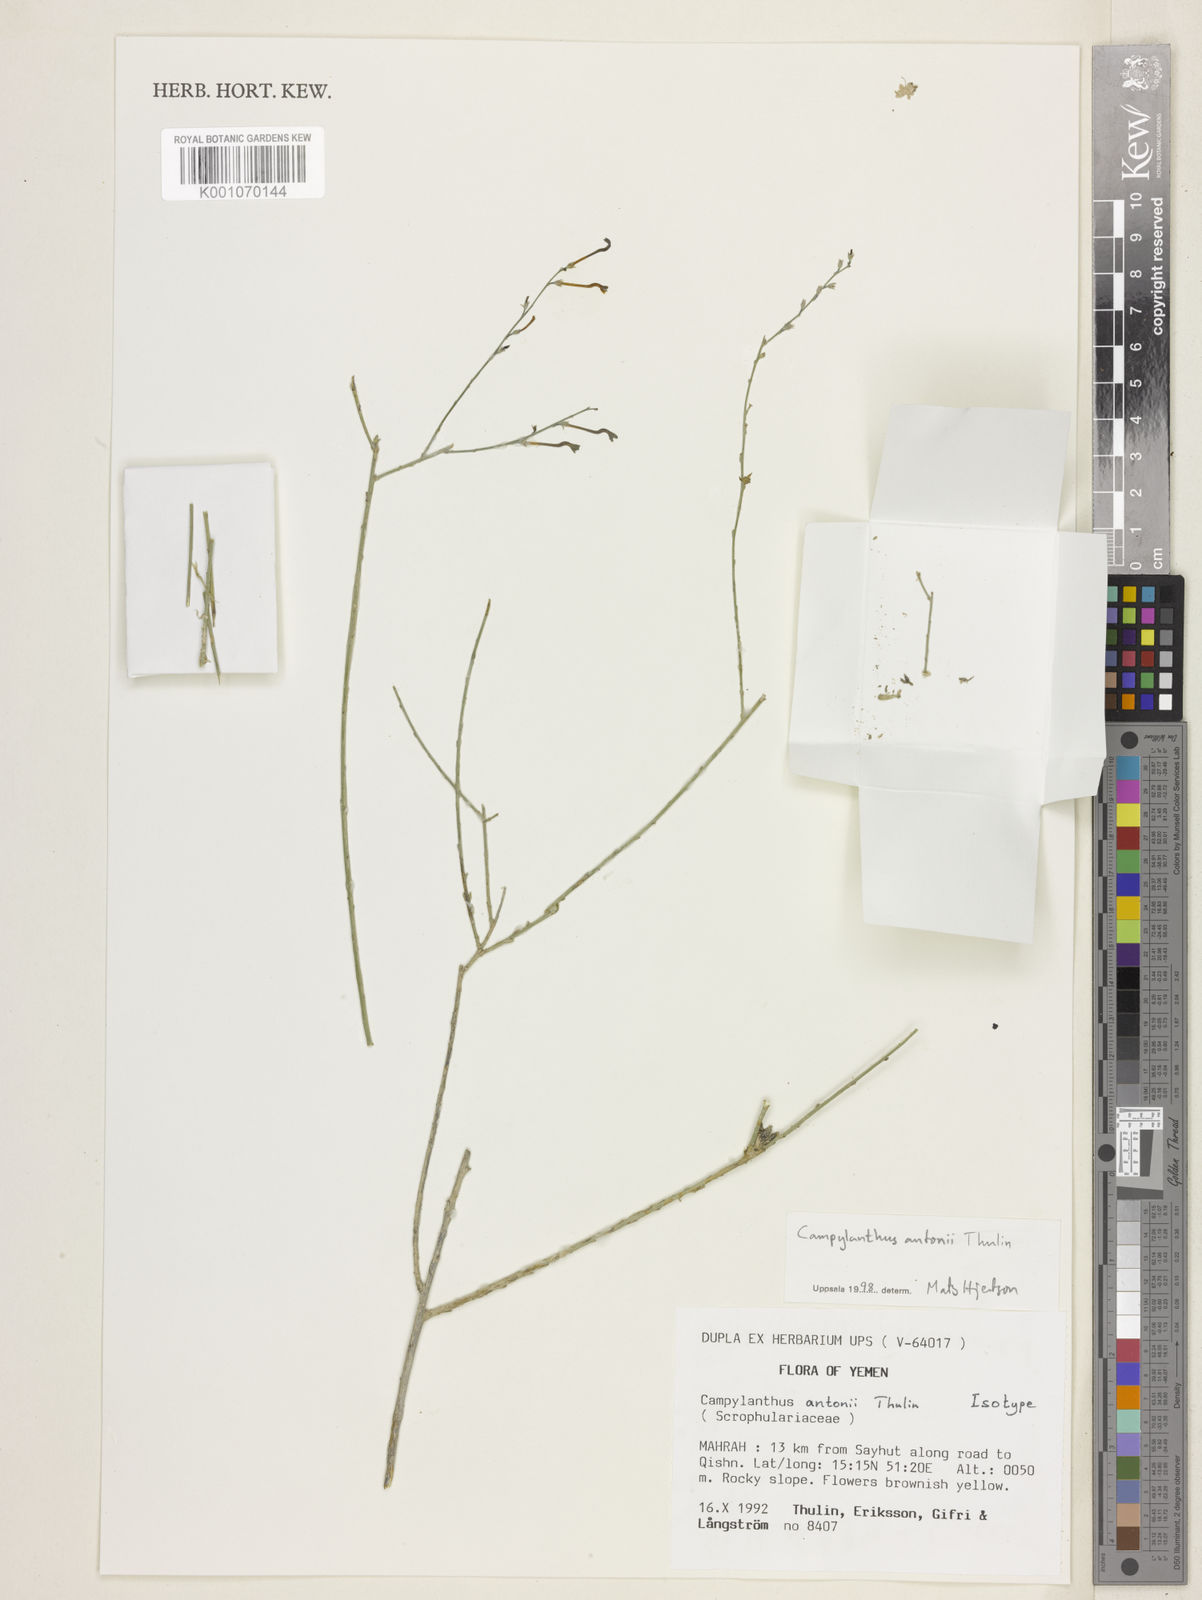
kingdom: Plantae
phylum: Tracheophyta
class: Magnoliopsida
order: Lamiales
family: Plantaginaceae
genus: Campylanthus
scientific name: Campylanthus antonii
